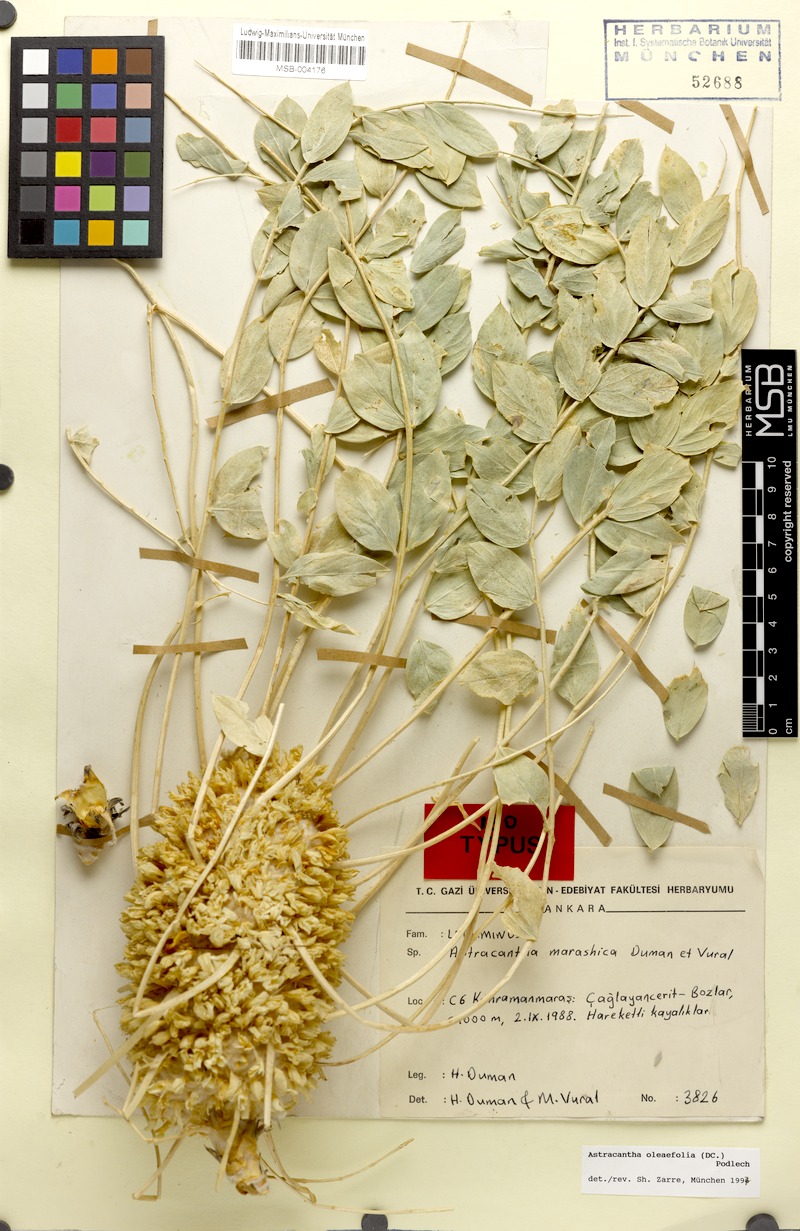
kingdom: Plantae
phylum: Tracheophyta
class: Magnoliopsida
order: Fabales
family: Fabaceae
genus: Astragalus
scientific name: Astragalus oleifolius
